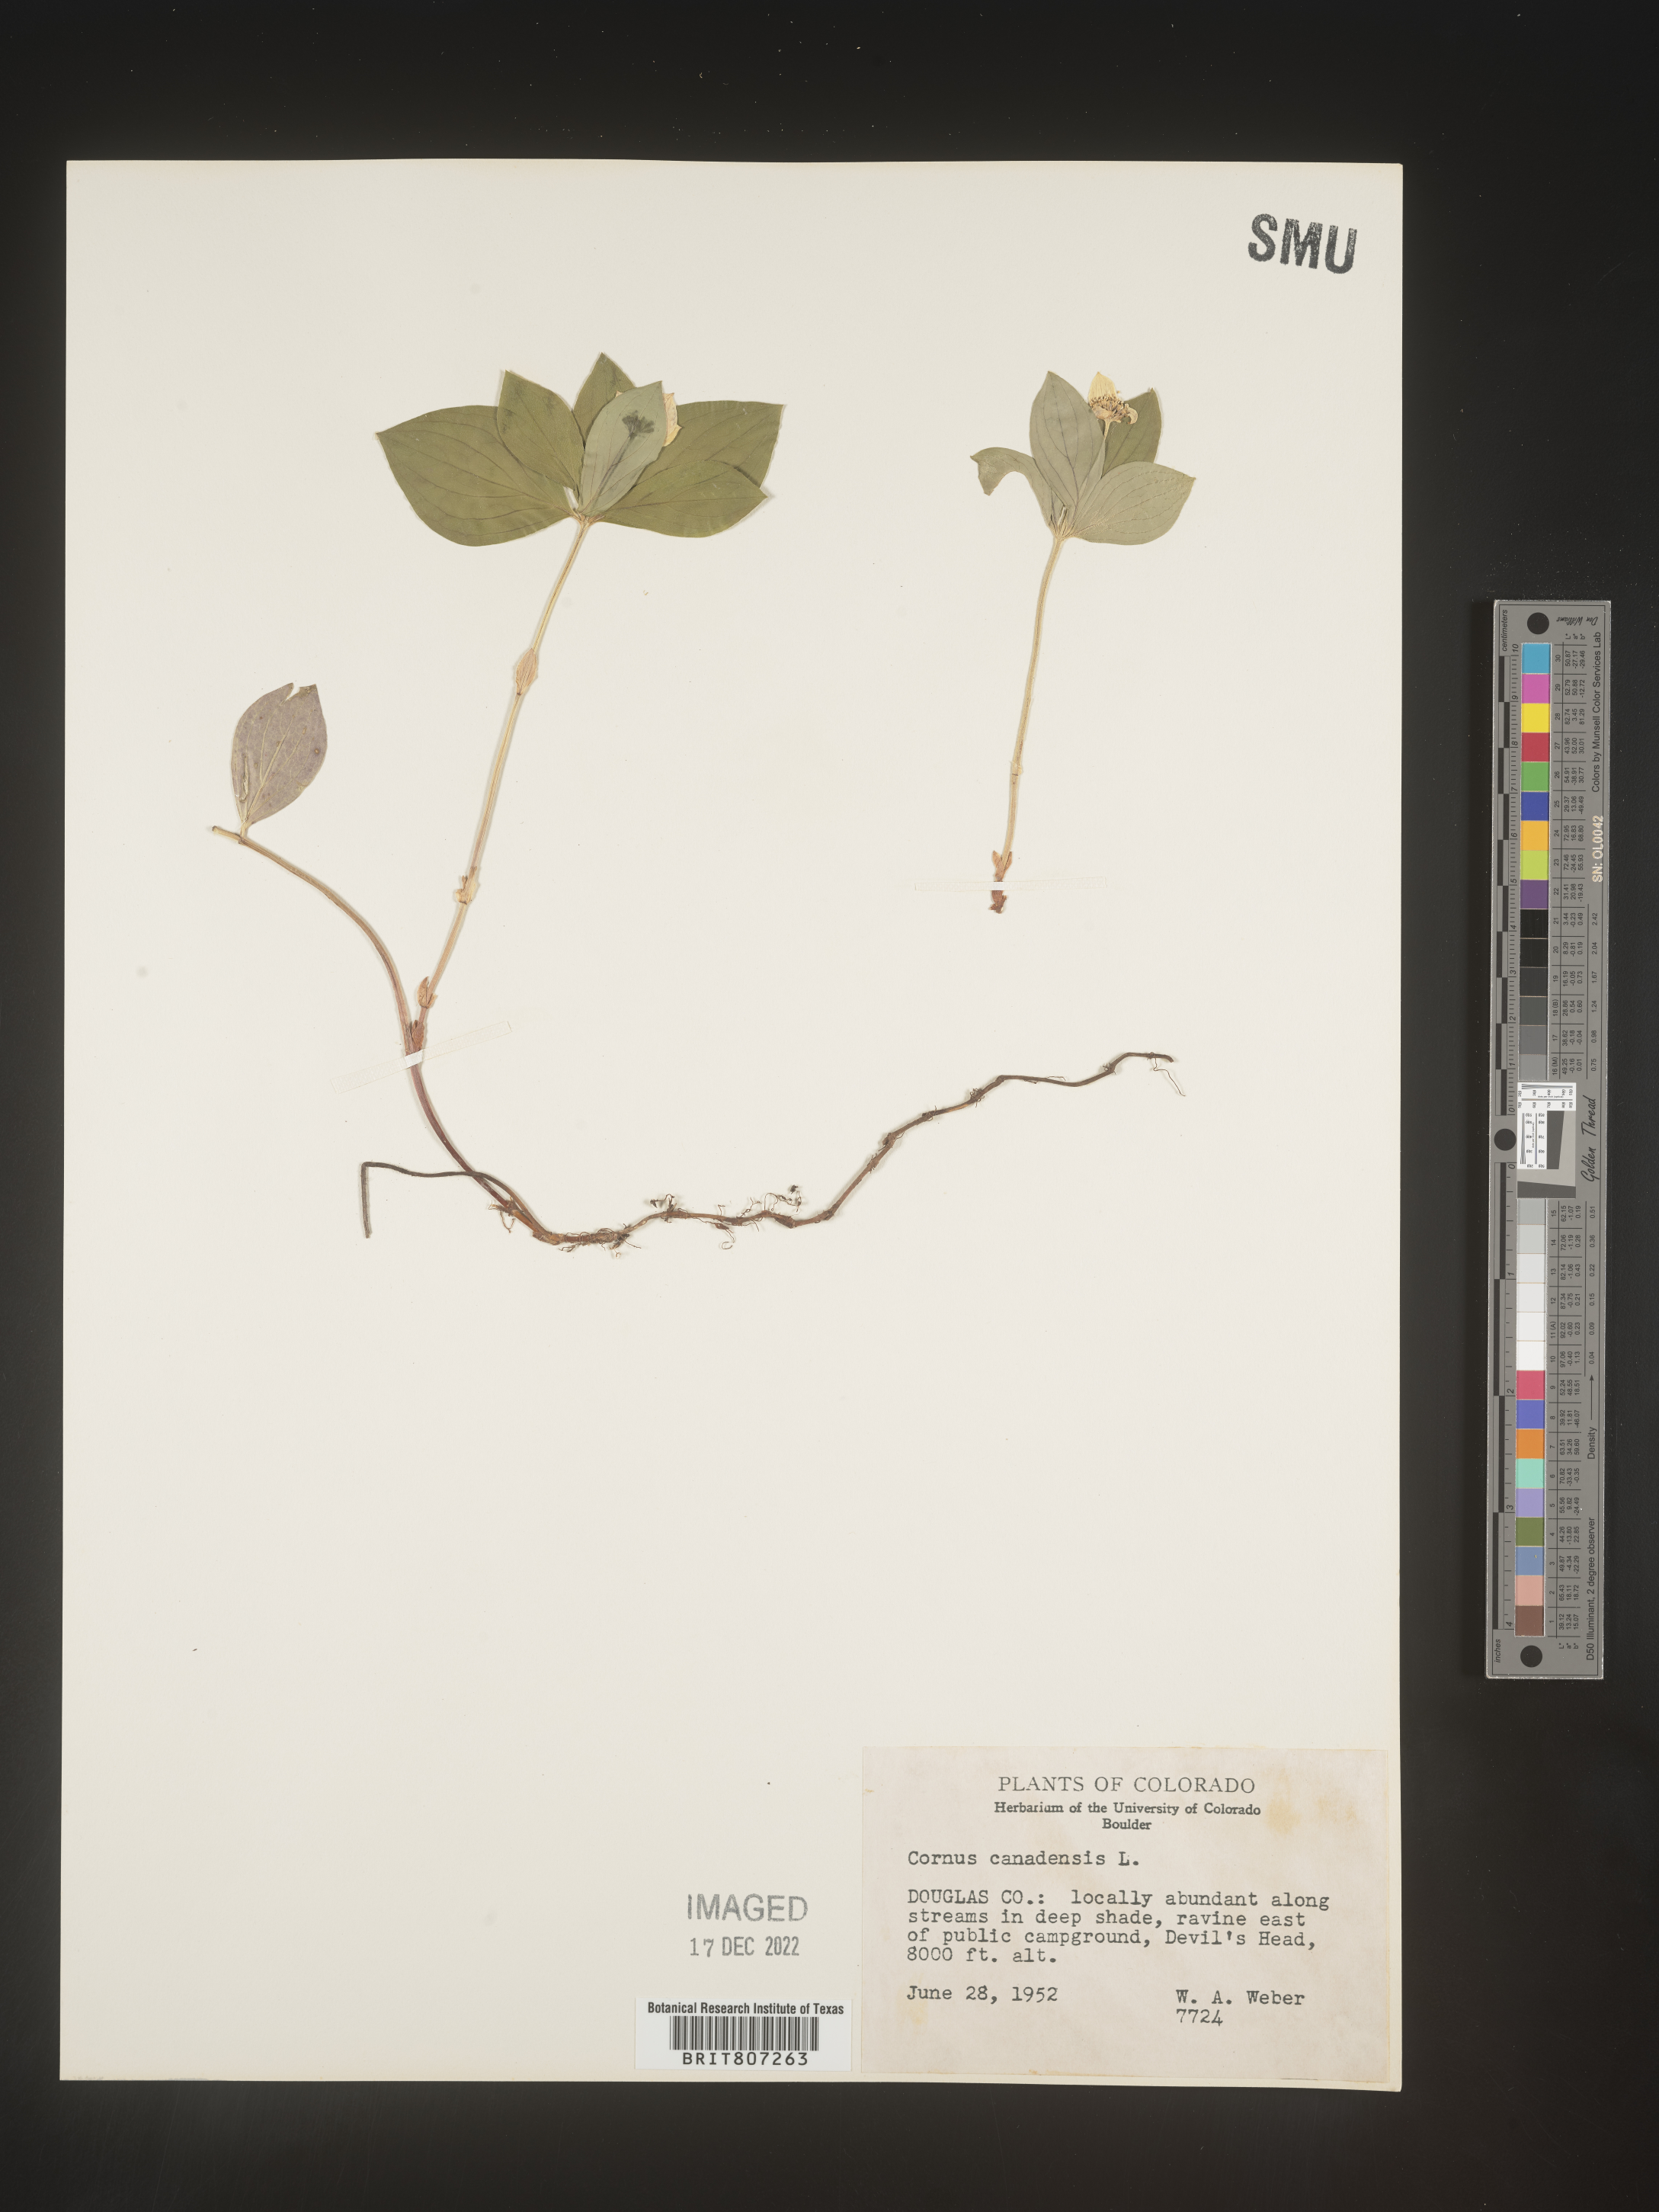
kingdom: Plantae
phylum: Tracheophyta
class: Magnoliopsida
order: Cornales
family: Cornaceae
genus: Cornus
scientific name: Cornus canadensis
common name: Creeping dogwood
